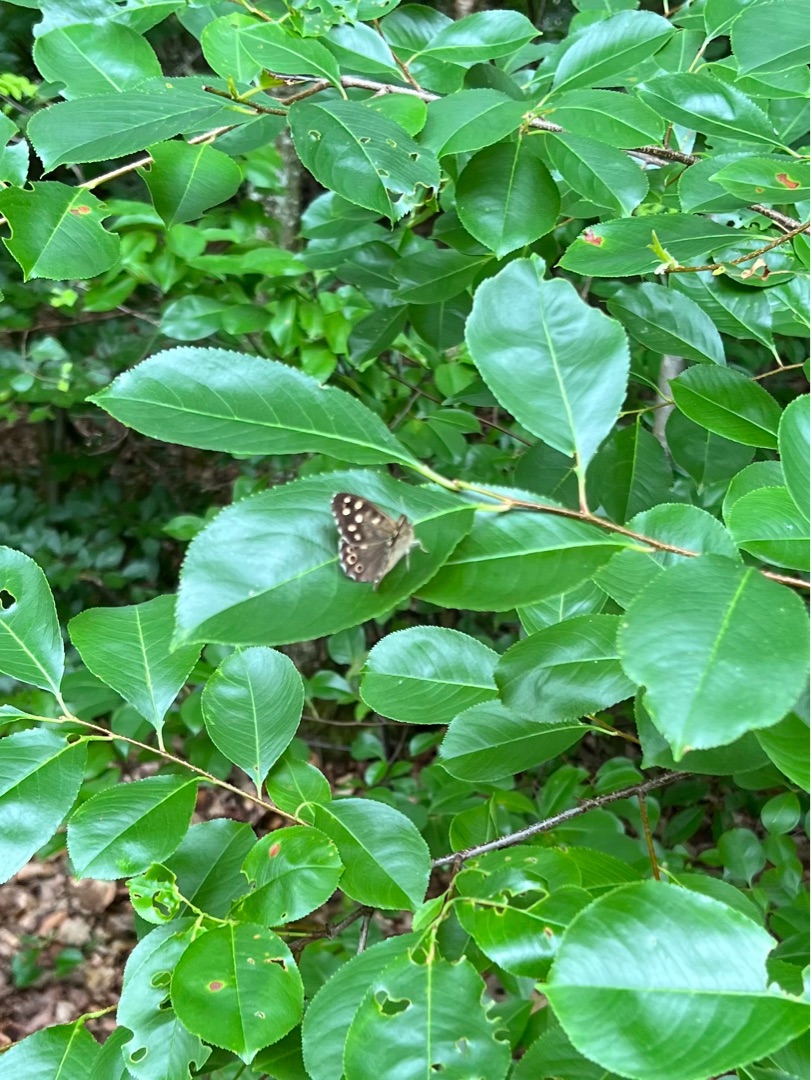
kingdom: Animalia
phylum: Arthropoda
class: Insecta
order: Lepidoptera
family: Nymphalidae
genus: Pararge
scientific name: Pararge aegeria
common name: Skovrandøje
